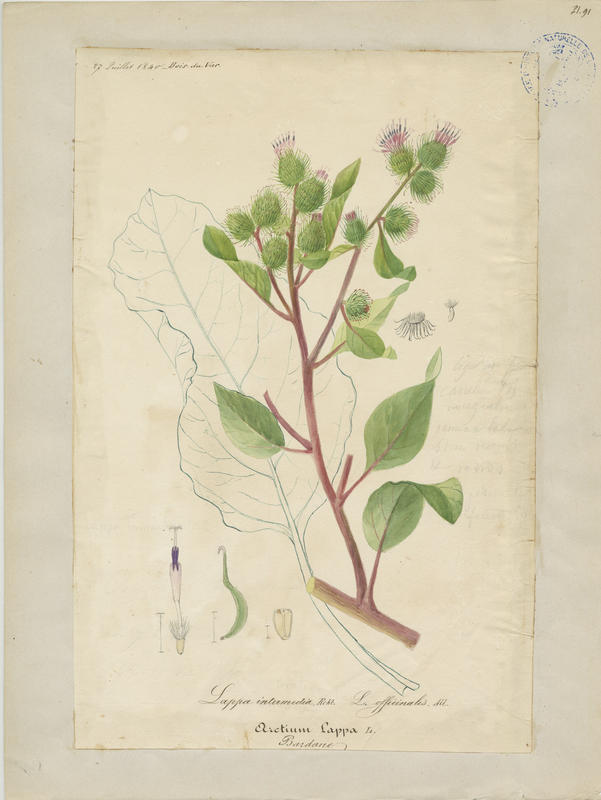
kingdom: Plantae
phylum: Tracheophyta
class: Magnoliopsida
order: Asterales
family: Asteraceae
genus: Arctium
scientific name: Arctium nemorosum
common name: Wood burdock
